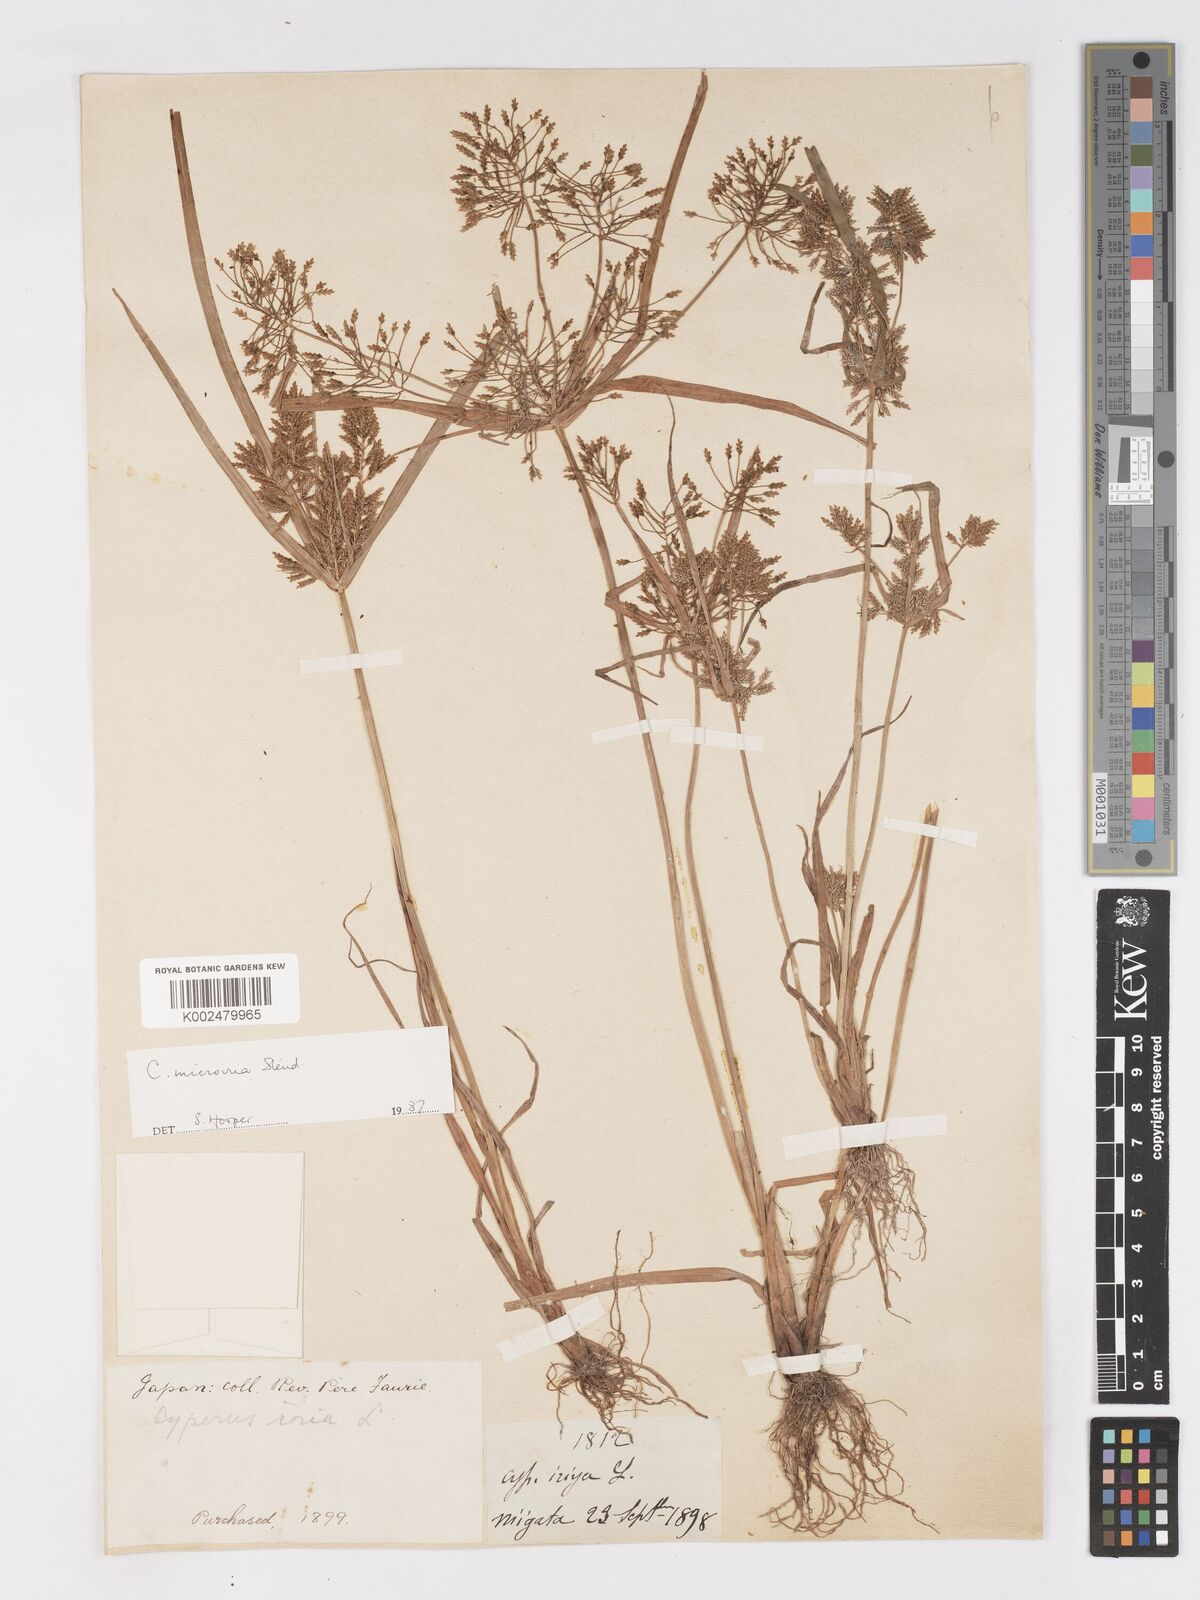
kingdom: Plantae
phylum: Tracheophyta
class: Liliopsida
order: Poales
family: Cyperaceae
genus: Cyperus
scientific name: Cyperus microiria
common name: Asian flatsedge
